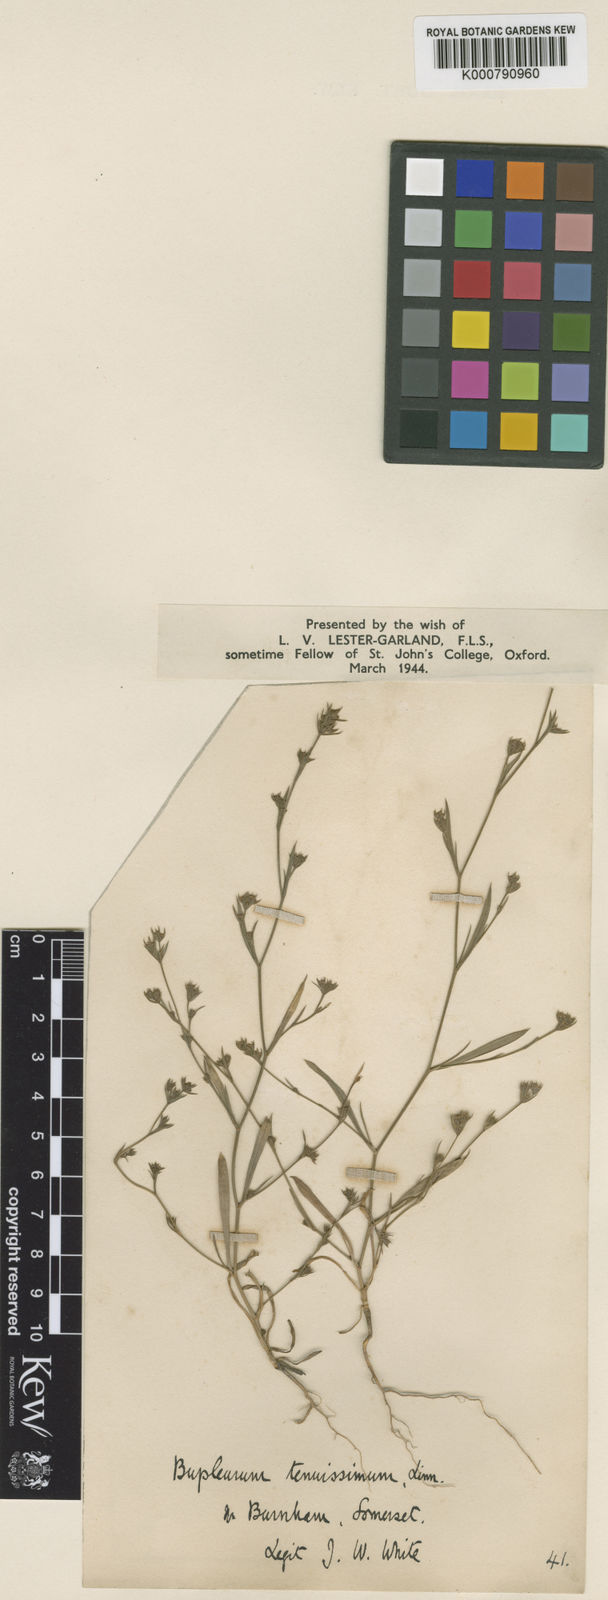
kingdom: Plantae
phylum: Tracheophyta
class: Magnoliopsida
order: Apiales
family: Apiaceae
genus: Bupleurum
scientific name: Bupleurum tenuissimum
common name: Slender hare's-ear
